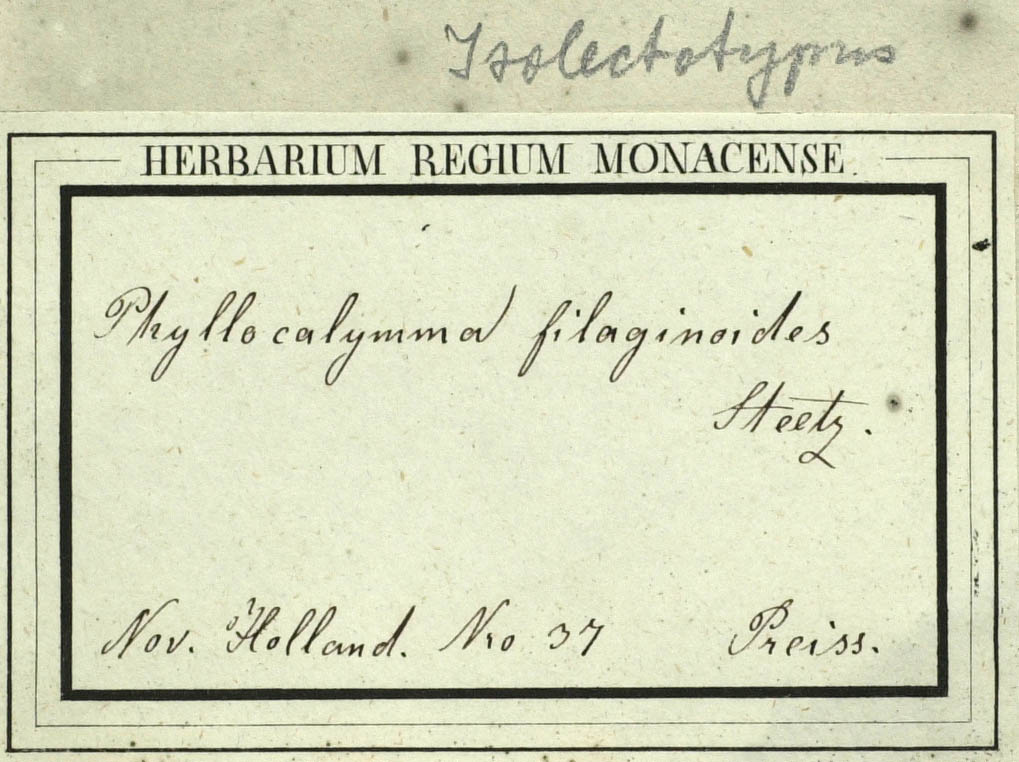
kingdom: Plantae
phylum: Tracheophyta
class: Magnoliopsida
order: Asterales
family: Asteraceae
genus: Angianthus
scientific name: Angianthus micropodioides
